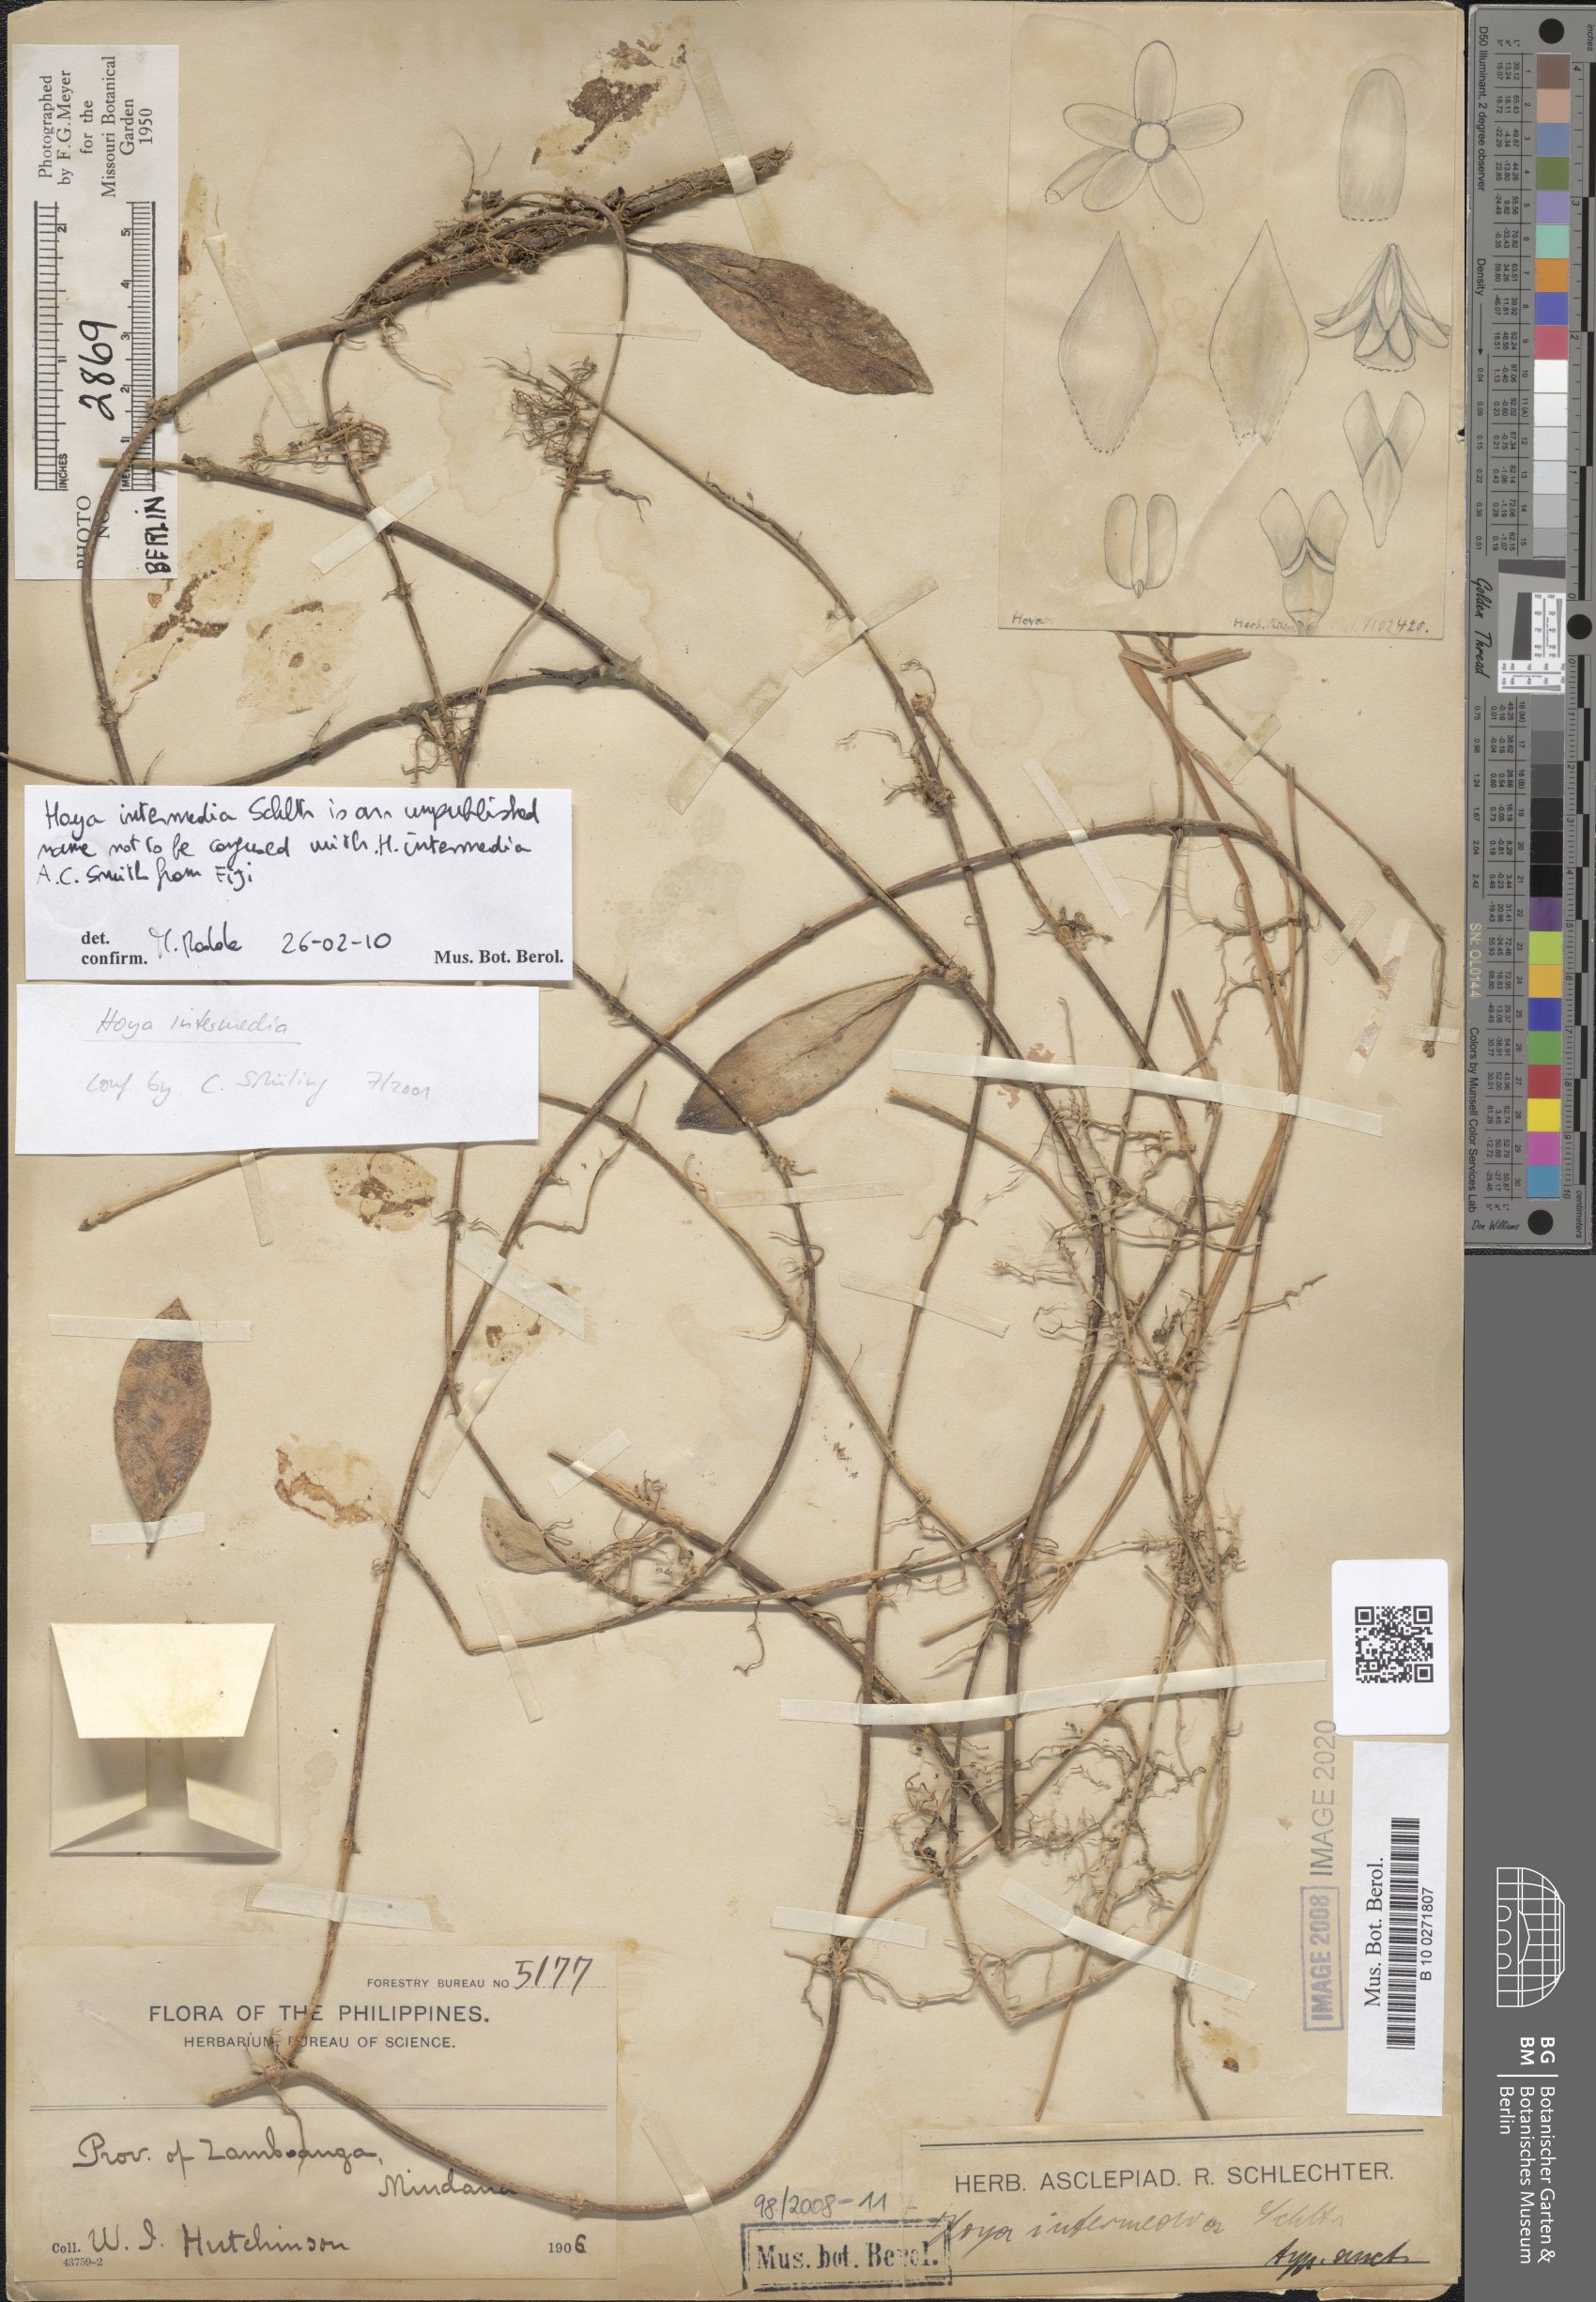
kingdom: Plantae
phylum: Tracheophyta
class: Magnoliopsida
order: Gentianales
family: Apocynaceae
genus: Hoya
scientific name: Hoya intermedia
